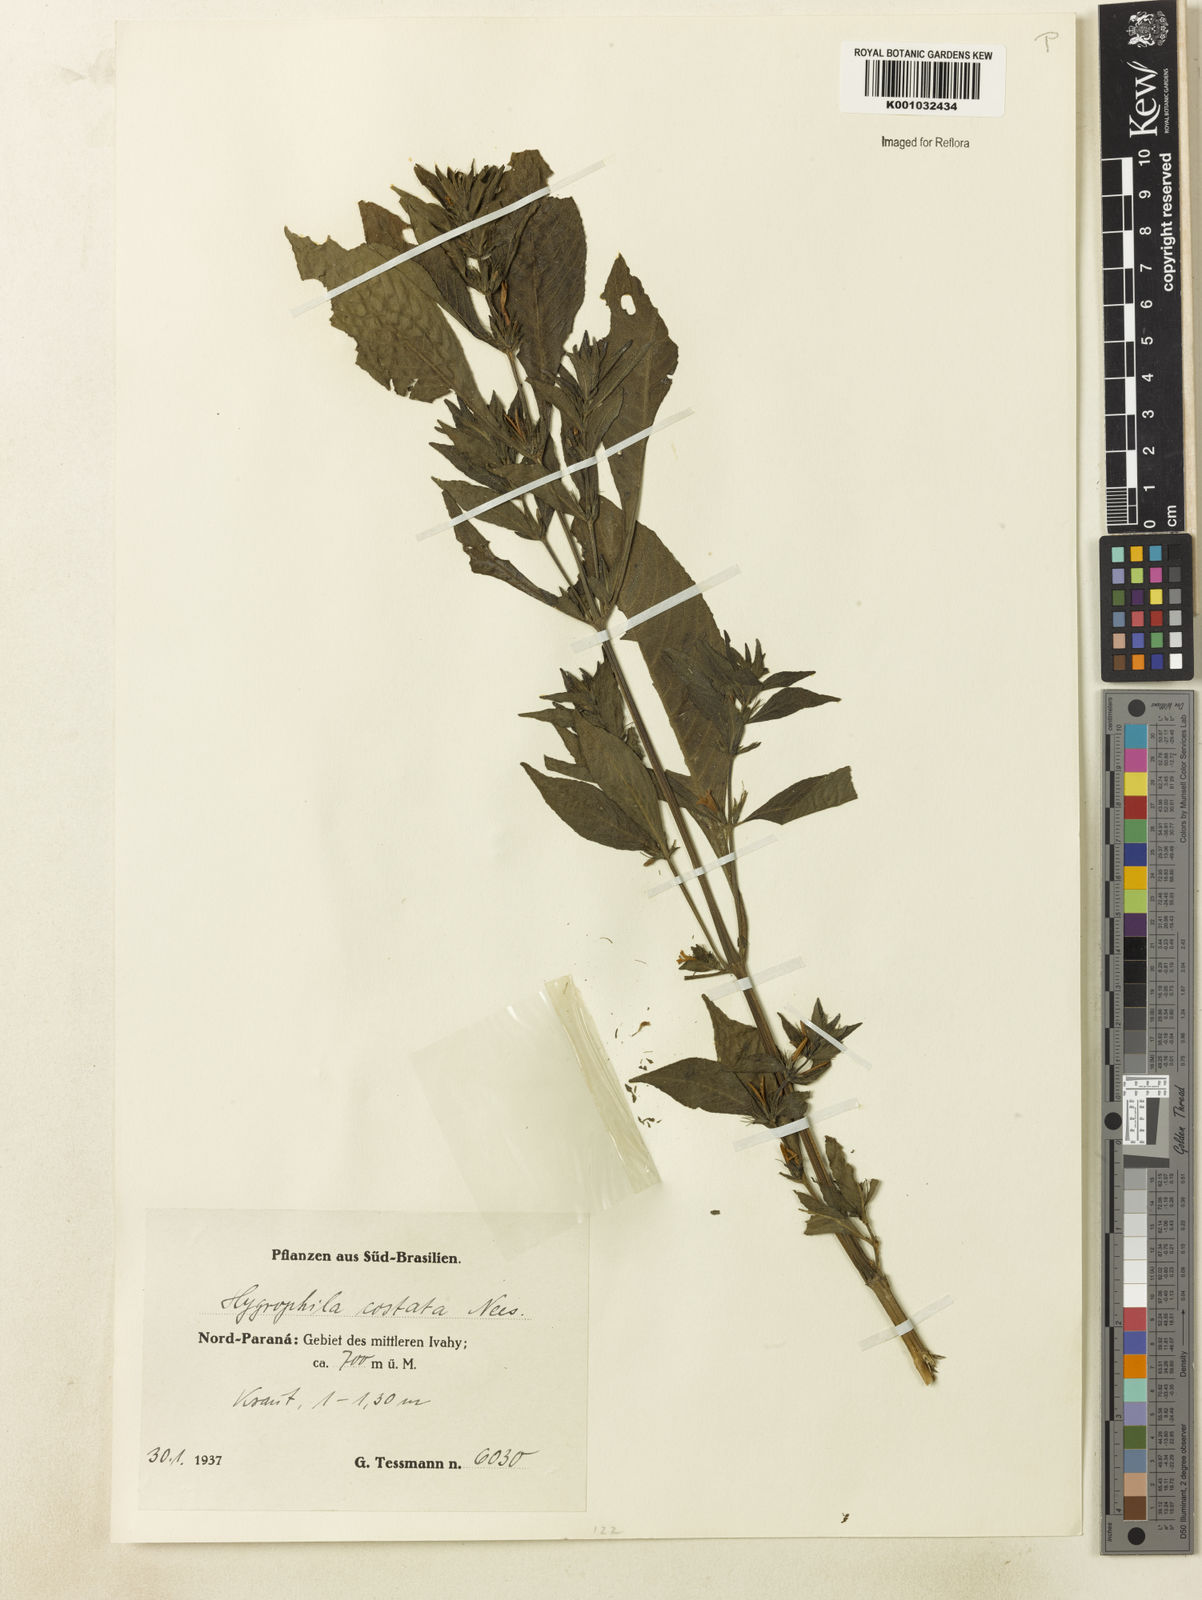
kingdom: Plantae
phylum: Tracheophyta
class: Magnoliopsida
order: Lamiales
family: Acanthaceae
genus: Hygrophila
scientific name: Hygrophila costata
